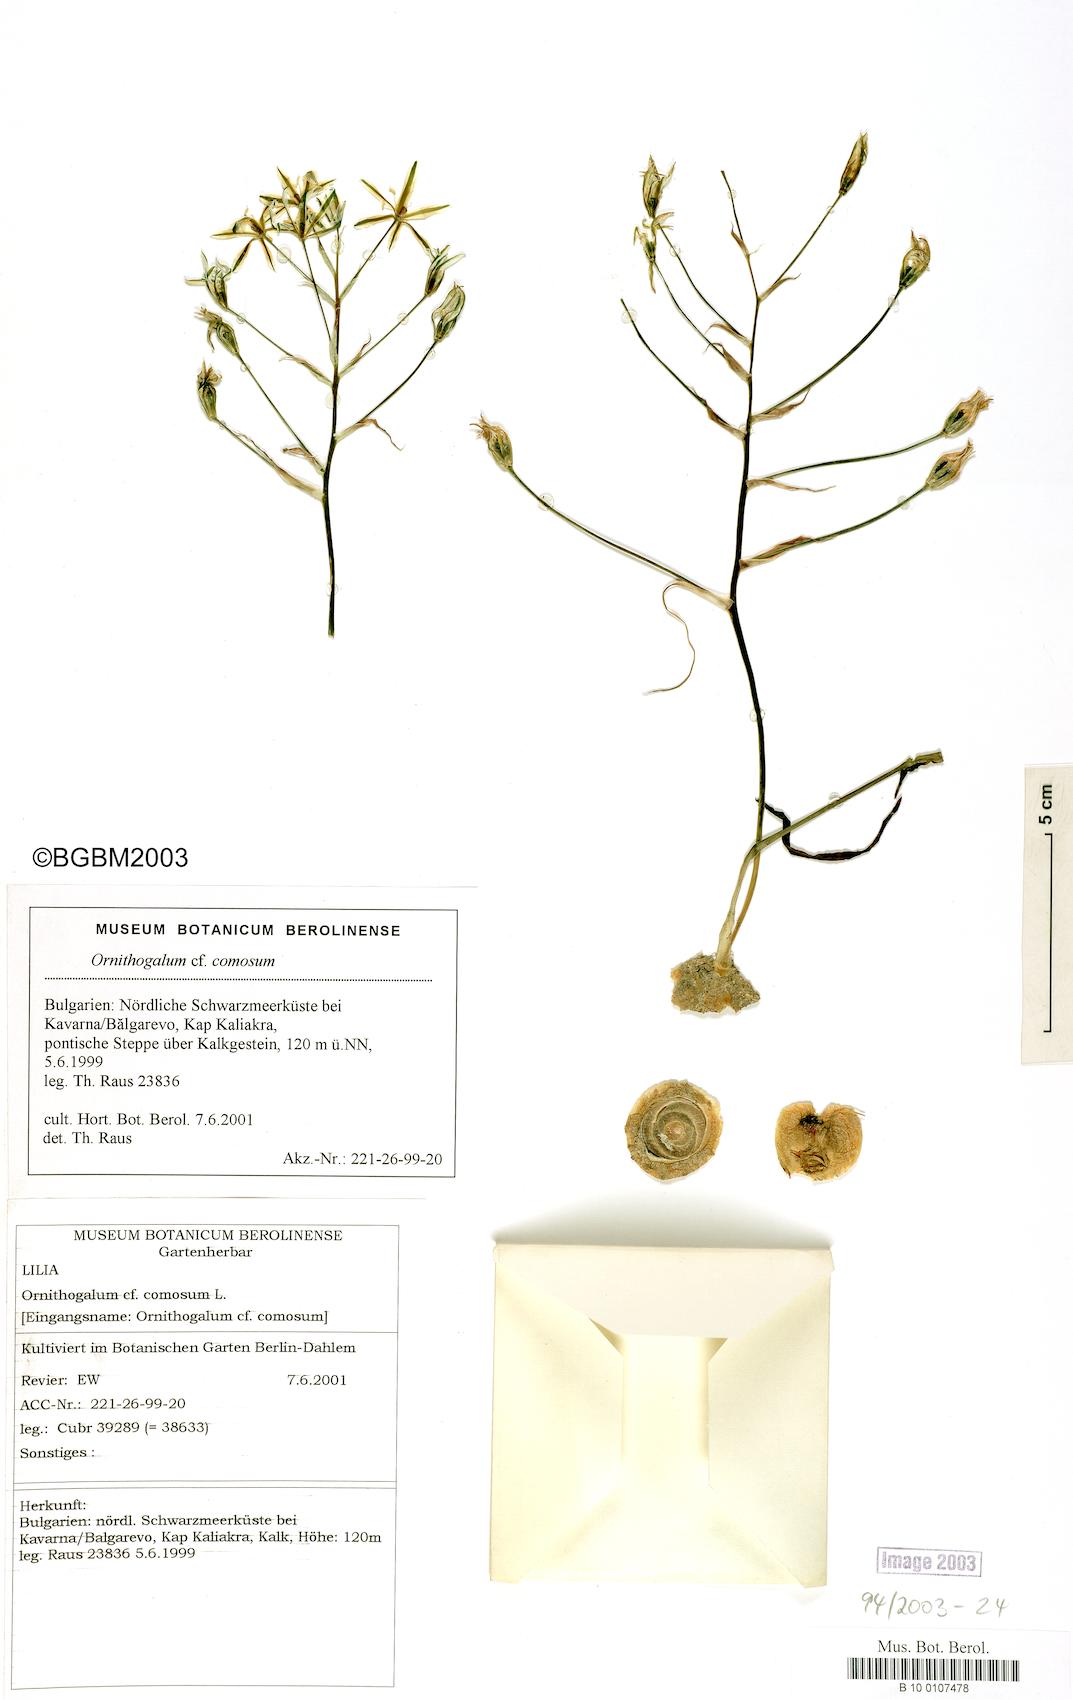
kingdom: Plantae
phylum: Tracheophyta
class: Liliopsida
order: Asparagales
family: Asparagaceae
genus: Ornithogalum
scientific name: Ornithogalum comosum
